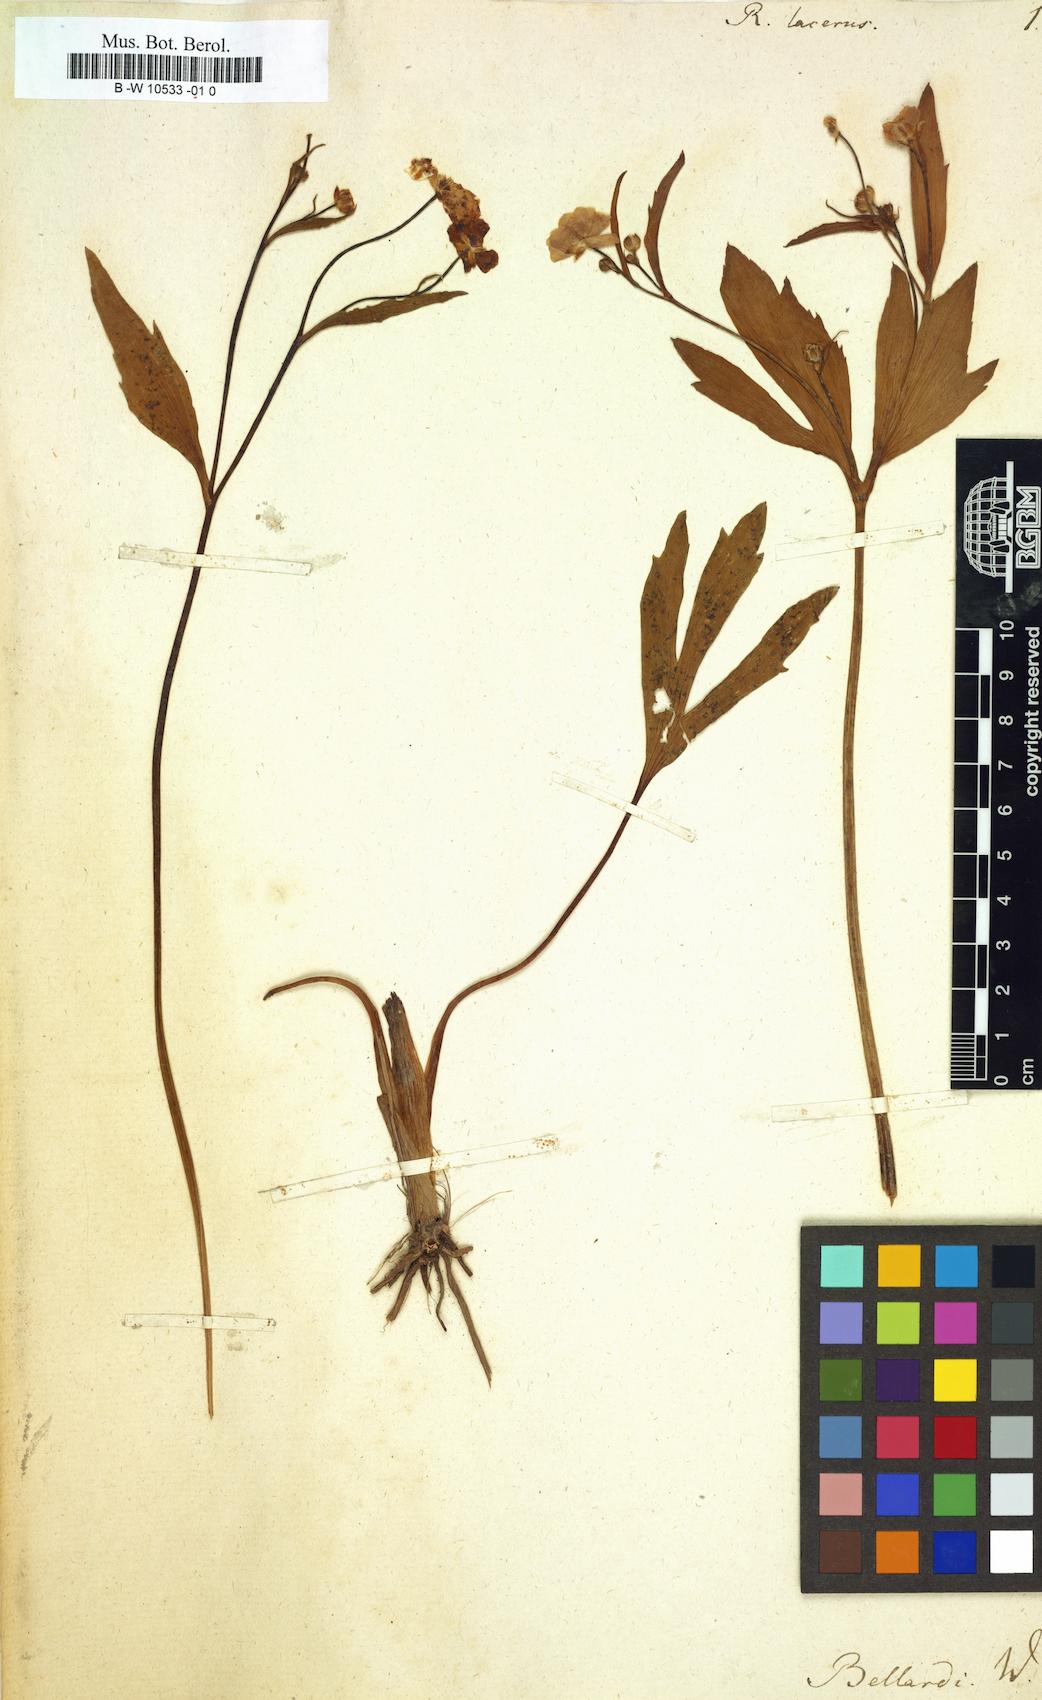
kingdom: Plantae
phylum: Tracheophyta
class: Magnoliopsida
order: Ranunculales
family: Ranunculaceae
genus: Ranunculus
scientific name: Ranunculus lacerus
